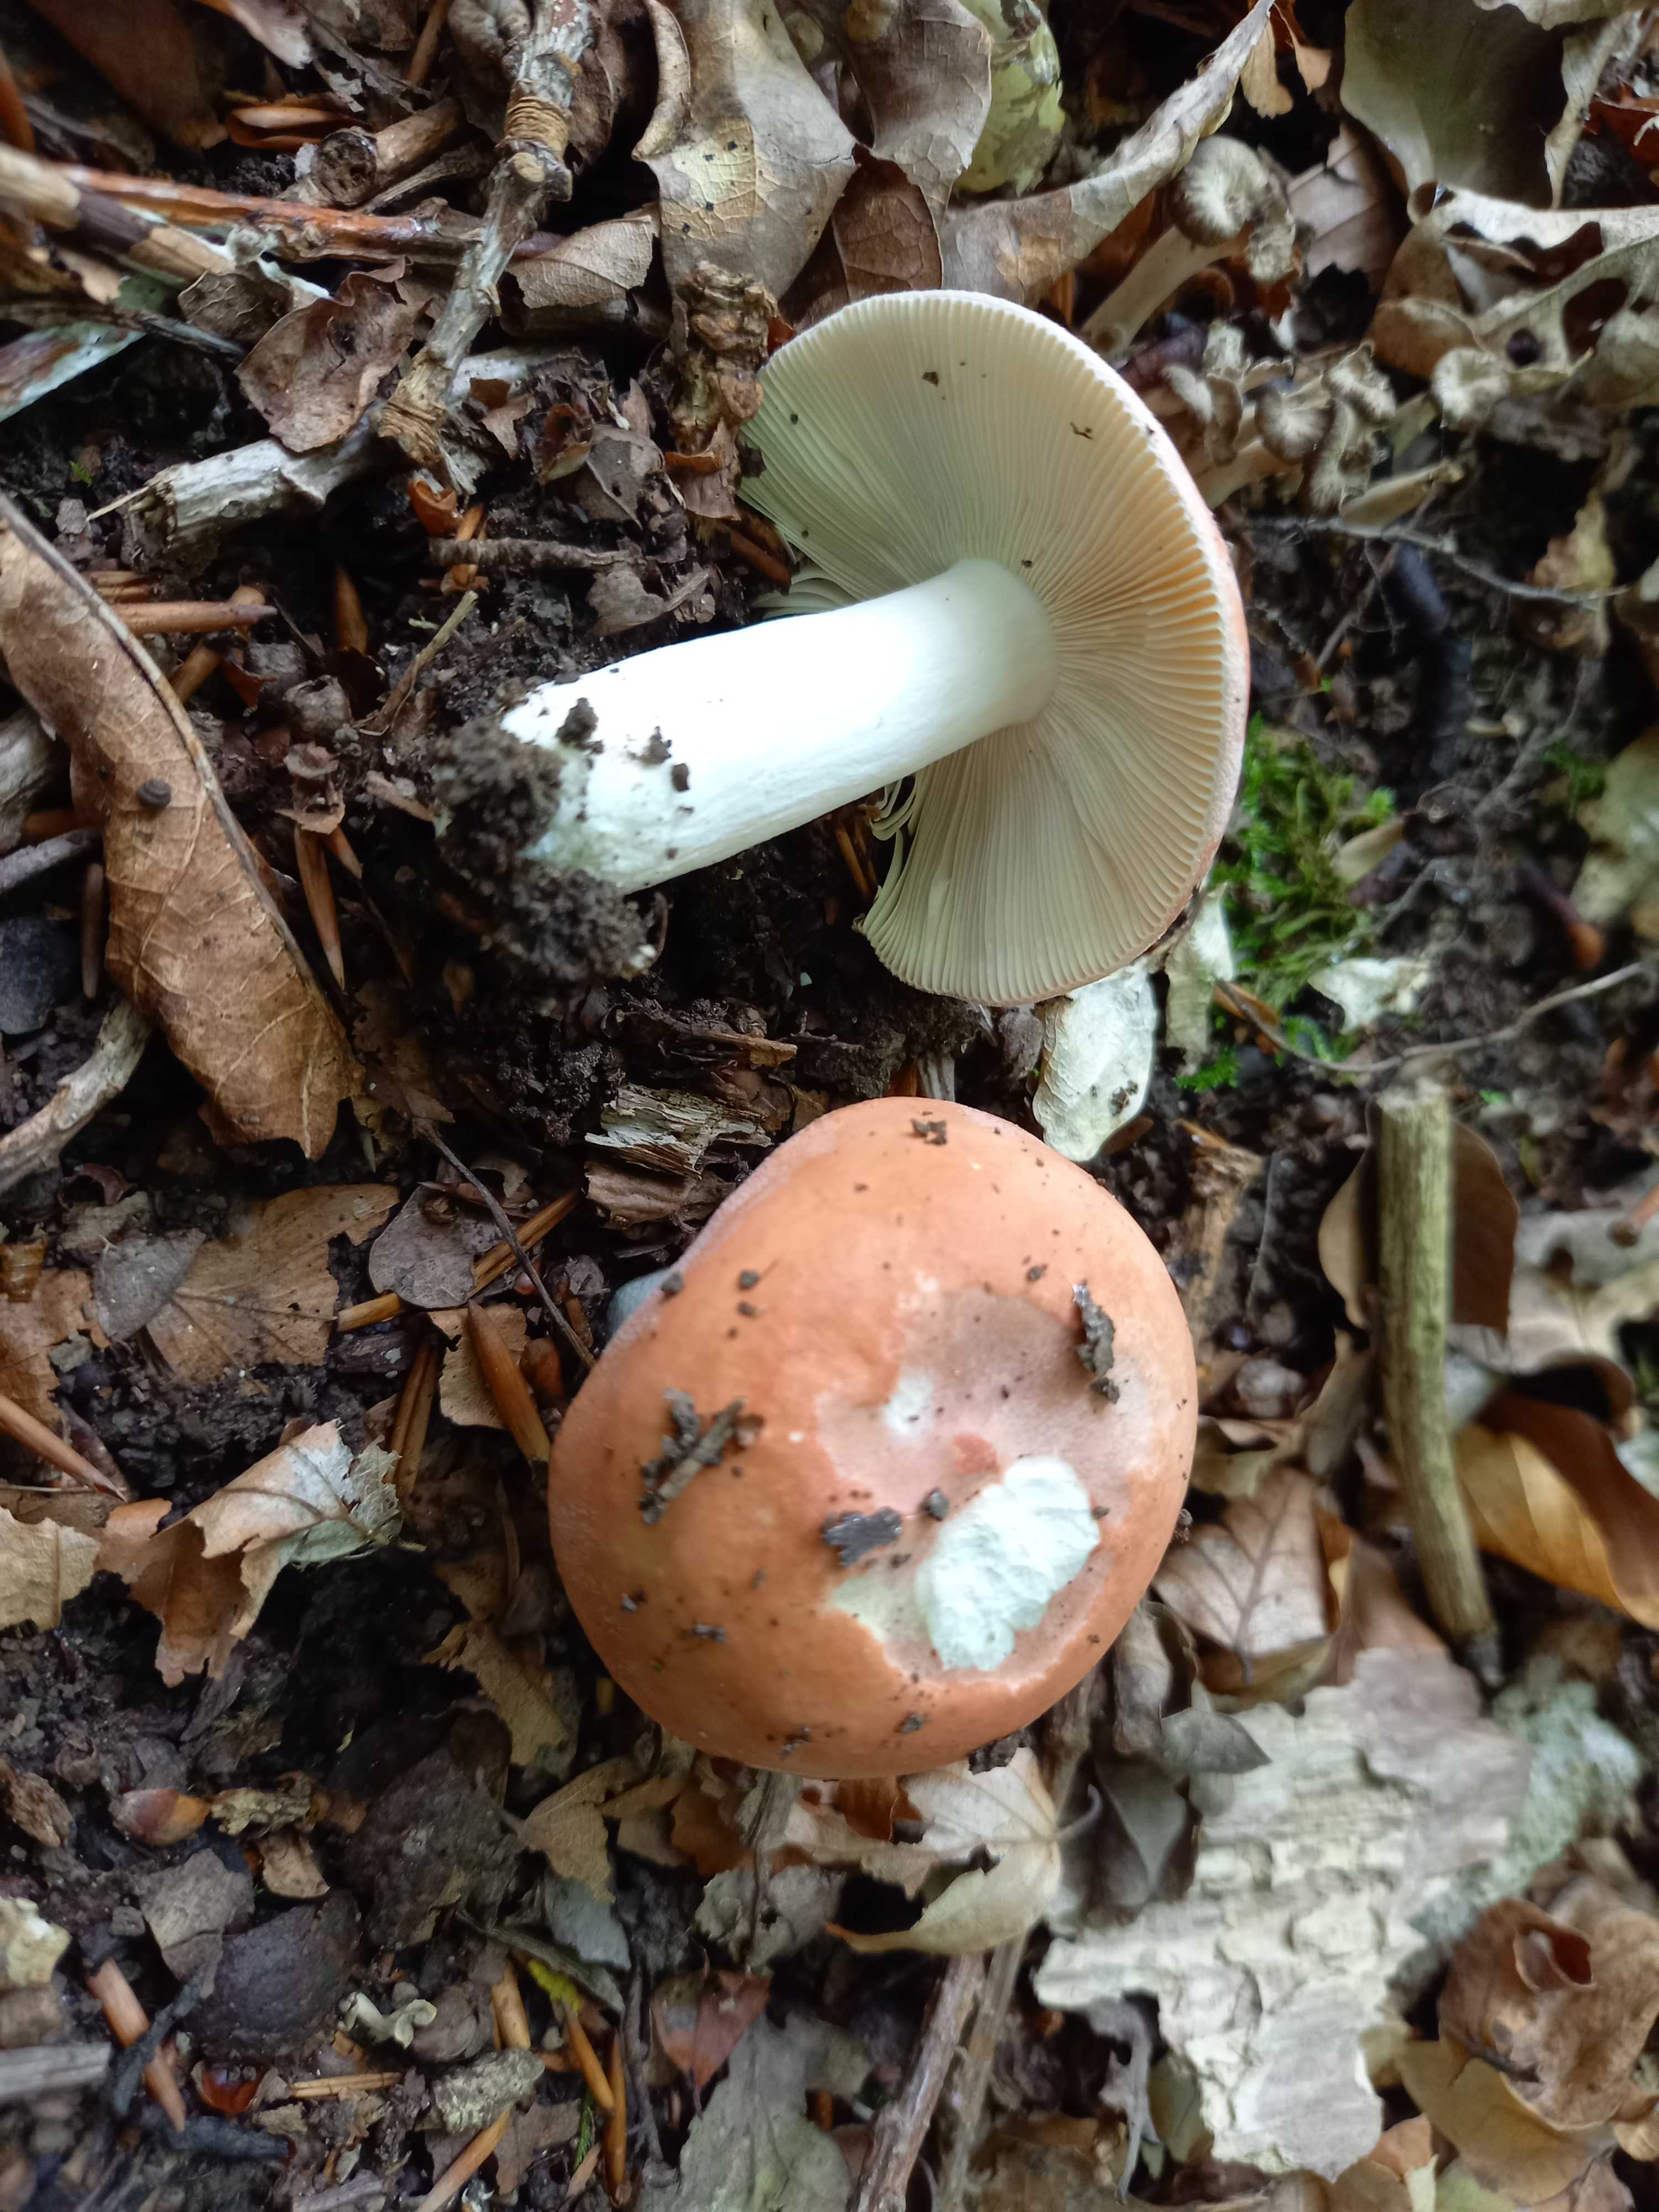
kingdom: Fungi
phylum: Basidiomycota
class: Agaricomycetes
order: Russulales
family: Russulaceae
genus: Russula
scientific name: Russula
